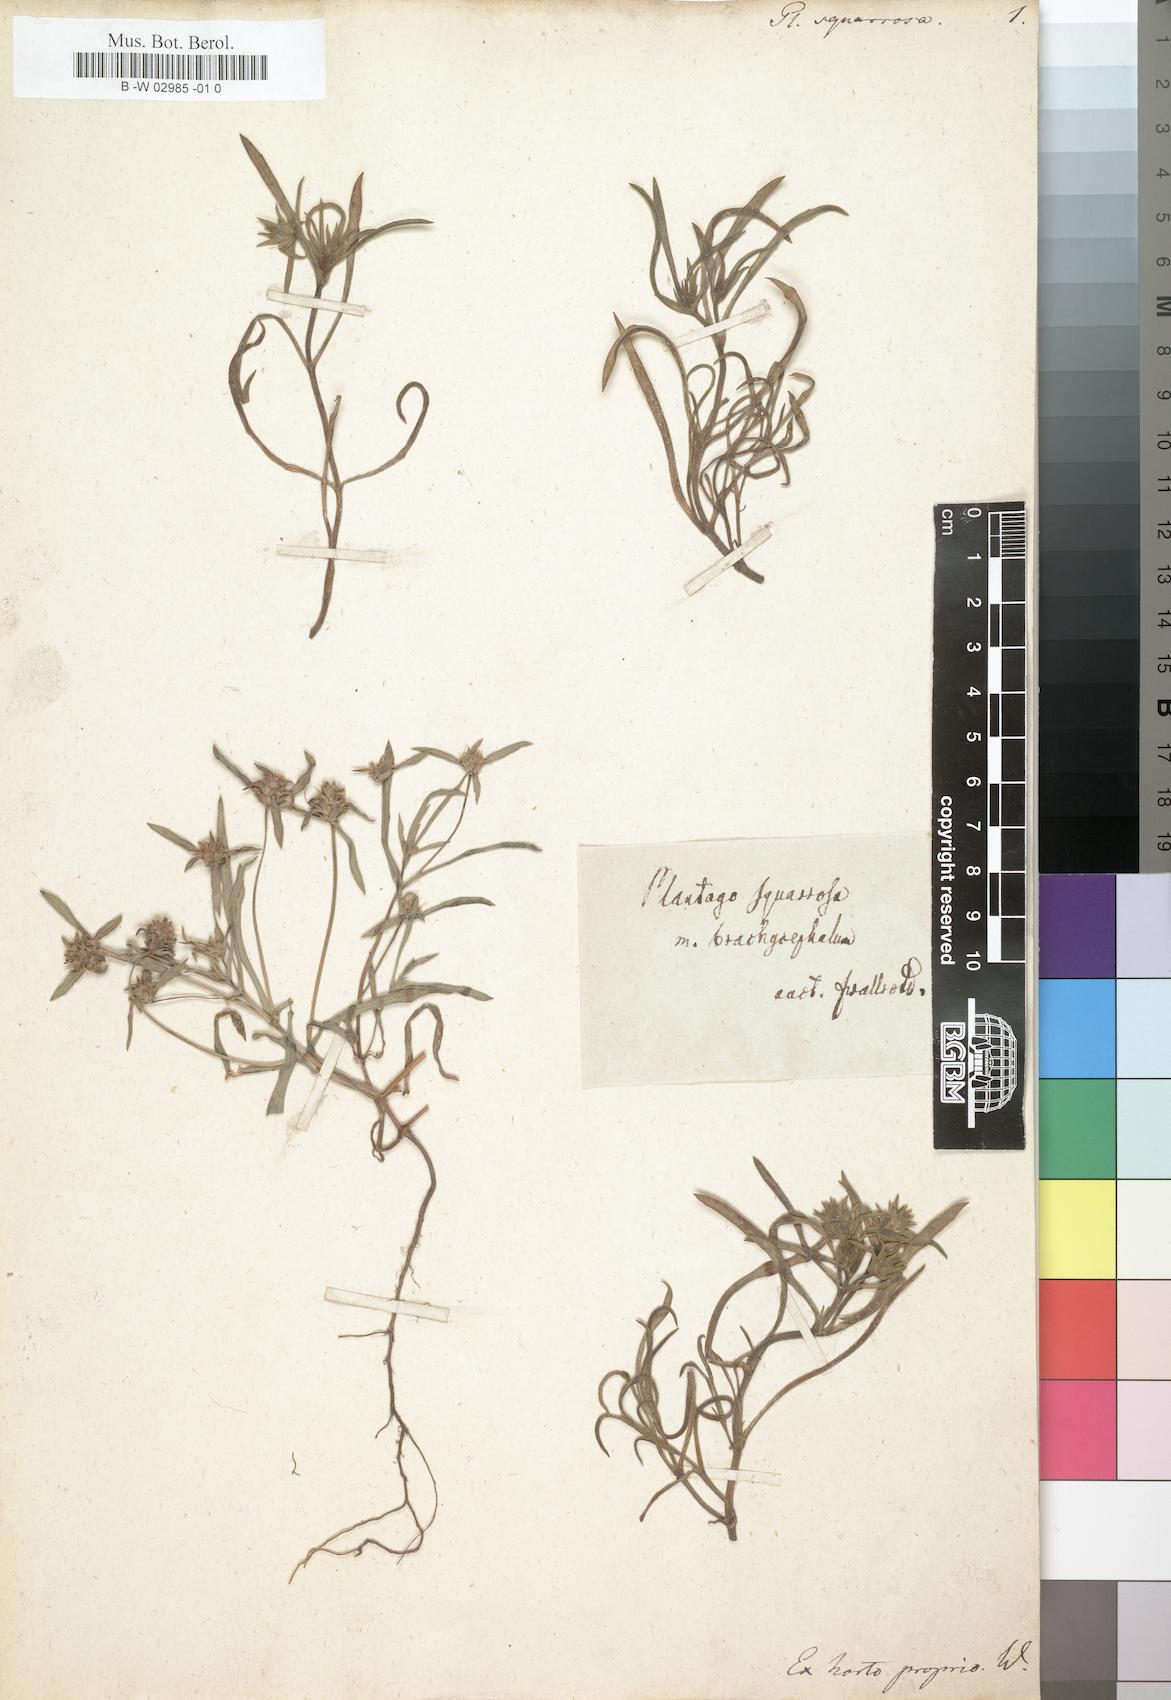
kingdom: Plantae
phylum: Tracheophyta
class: Magnoliopsida
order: Lamiales
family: Plantaginaceae
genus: Plantago
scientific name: Plantago squarrosa
